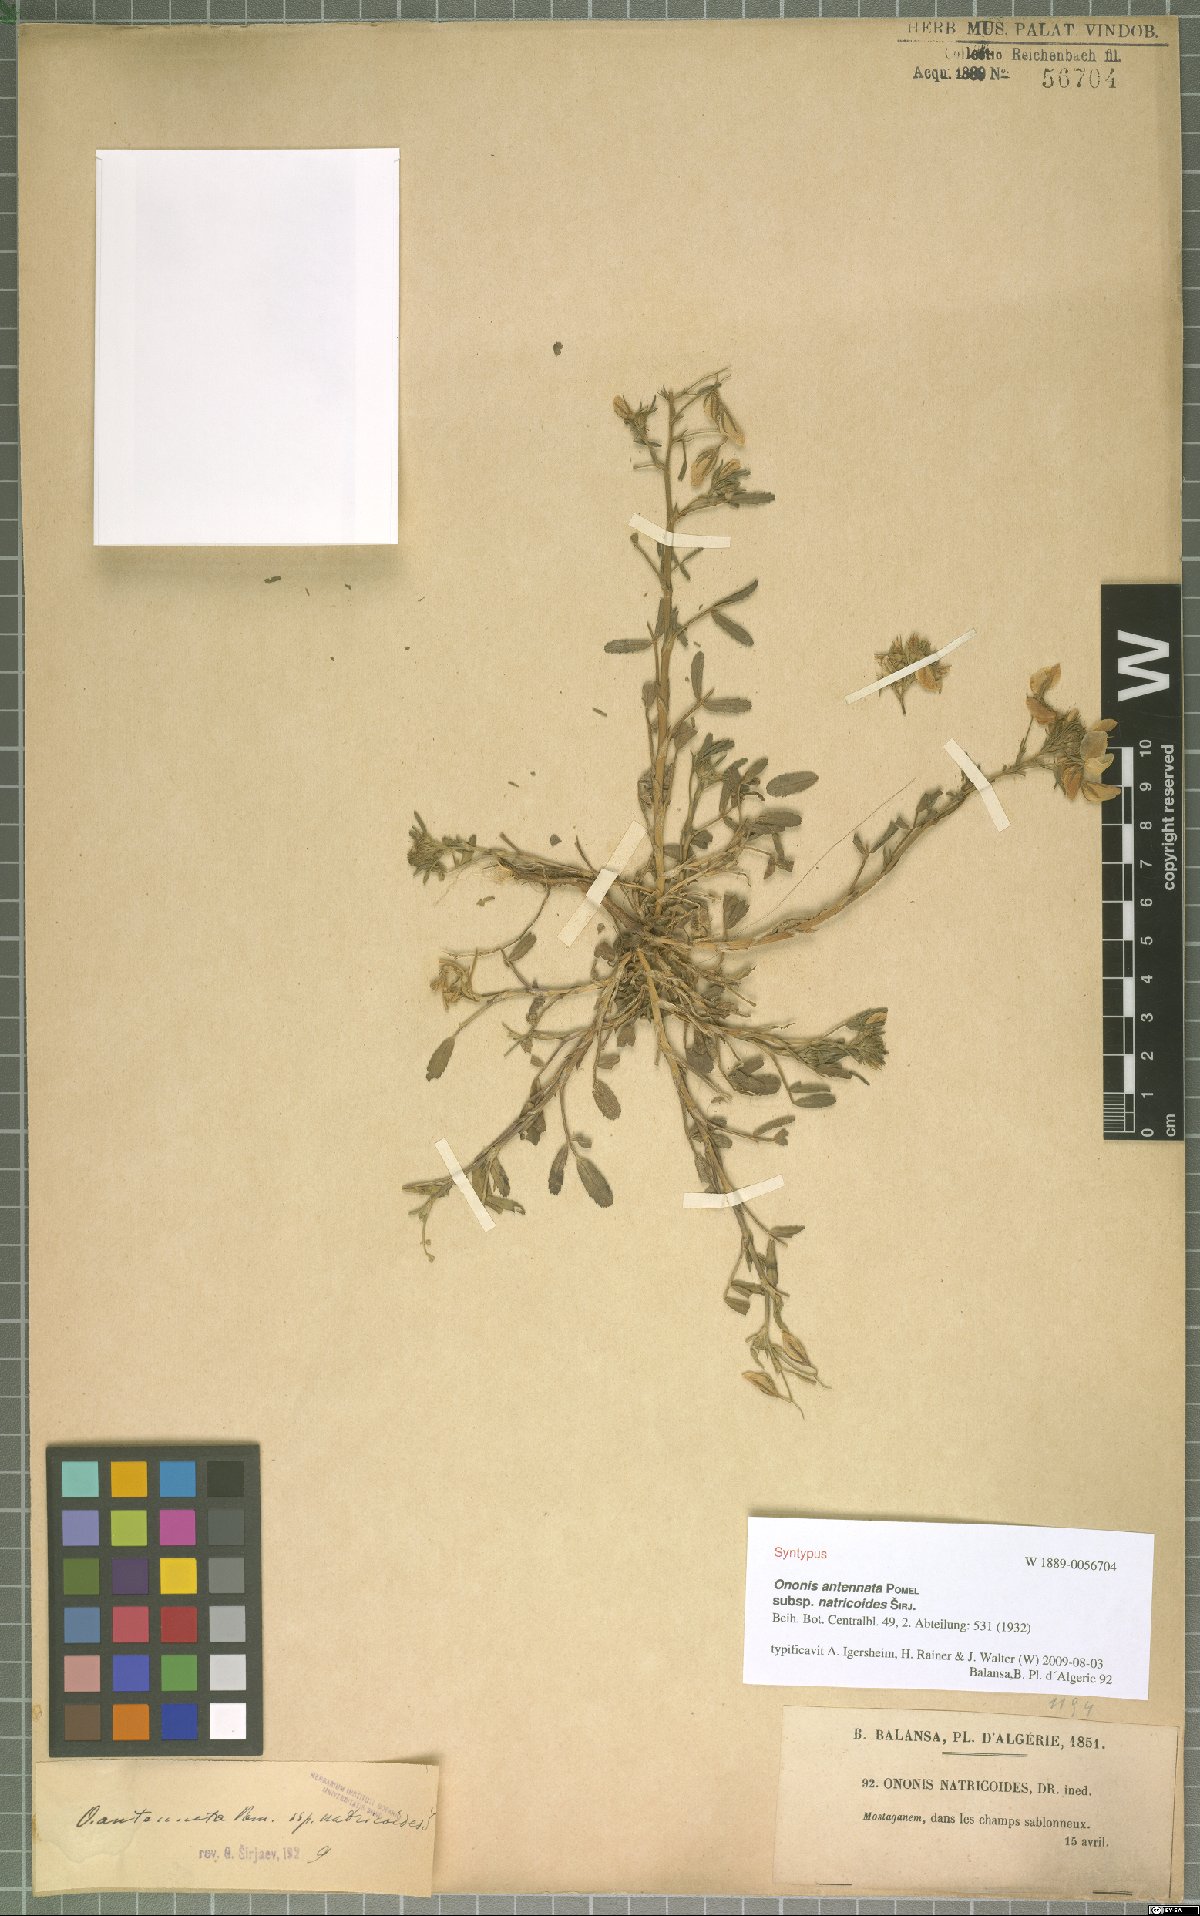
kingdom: Plantae
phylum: Tracheophyta
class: Magnoliopsida
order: Fabales
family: Fabaceae
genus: Ononis
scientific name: Ononis antennata
